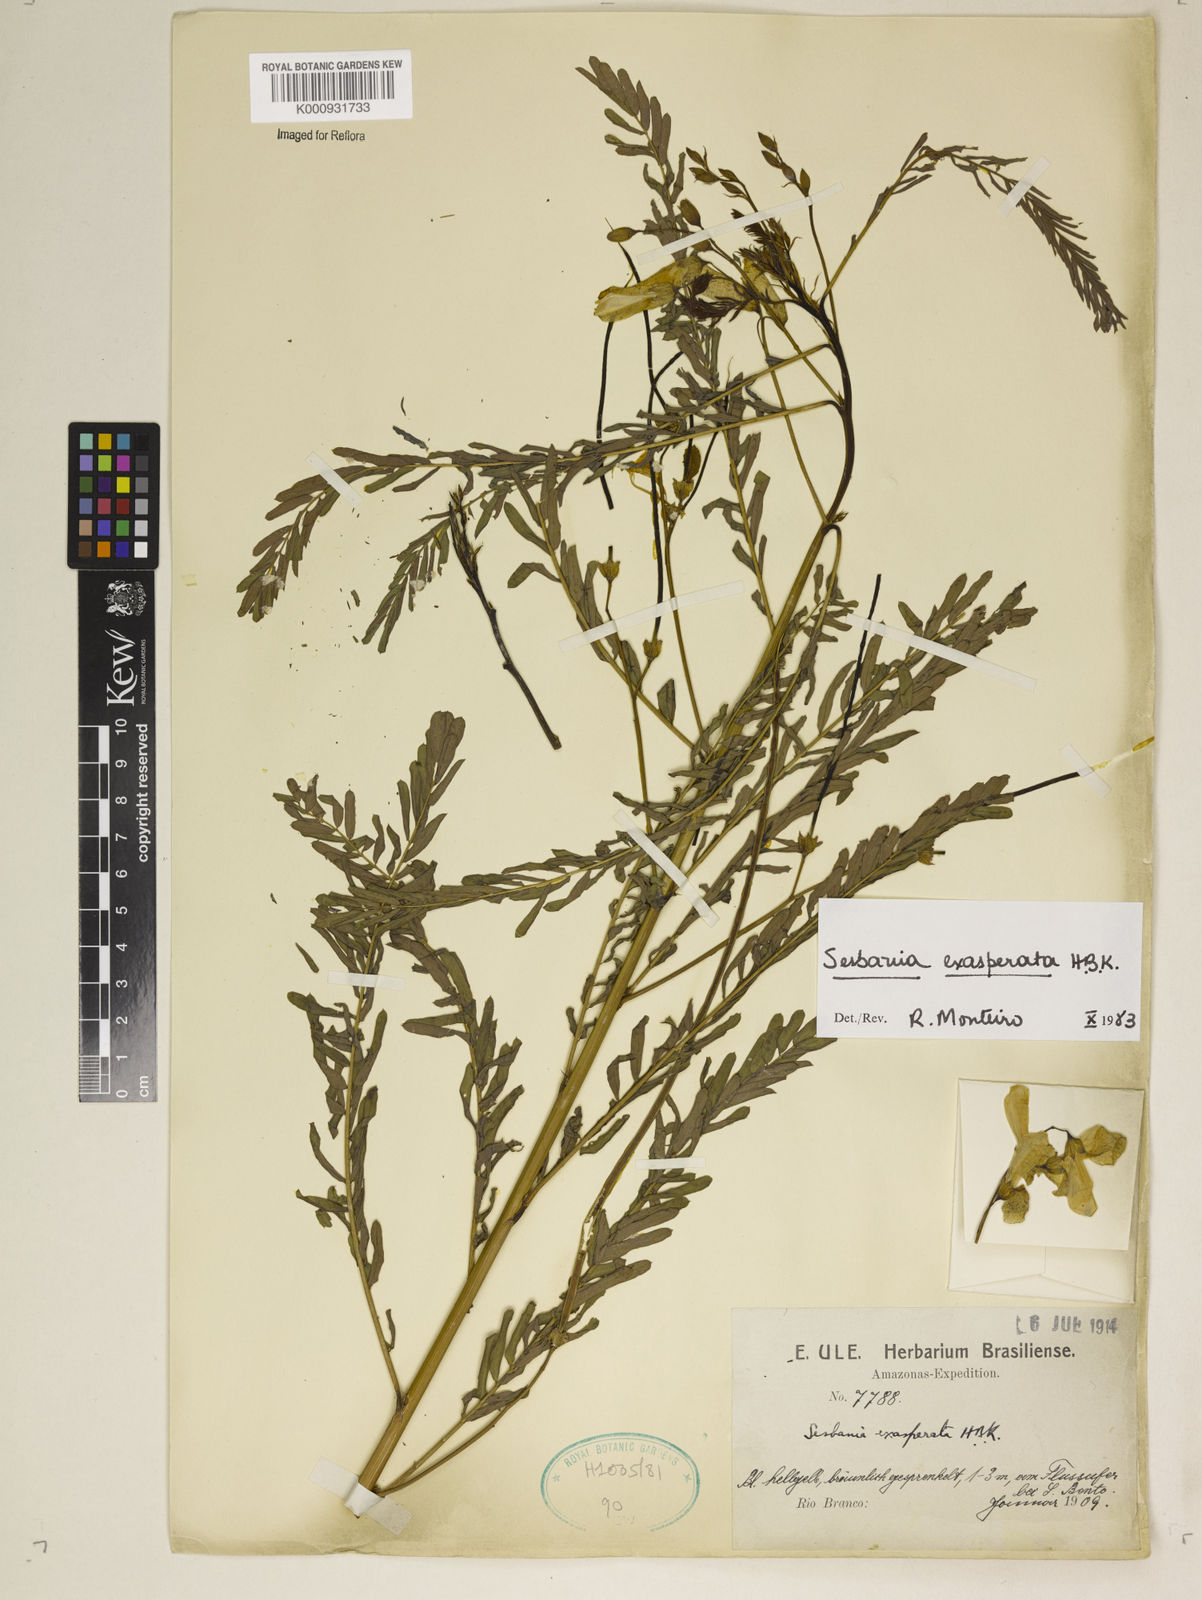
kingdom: Plantae
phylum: Tracheophyta
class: Magnoliopsida
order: Fabales
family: Fabaceae
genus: Sesbania
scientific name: Sesbania exasperata
